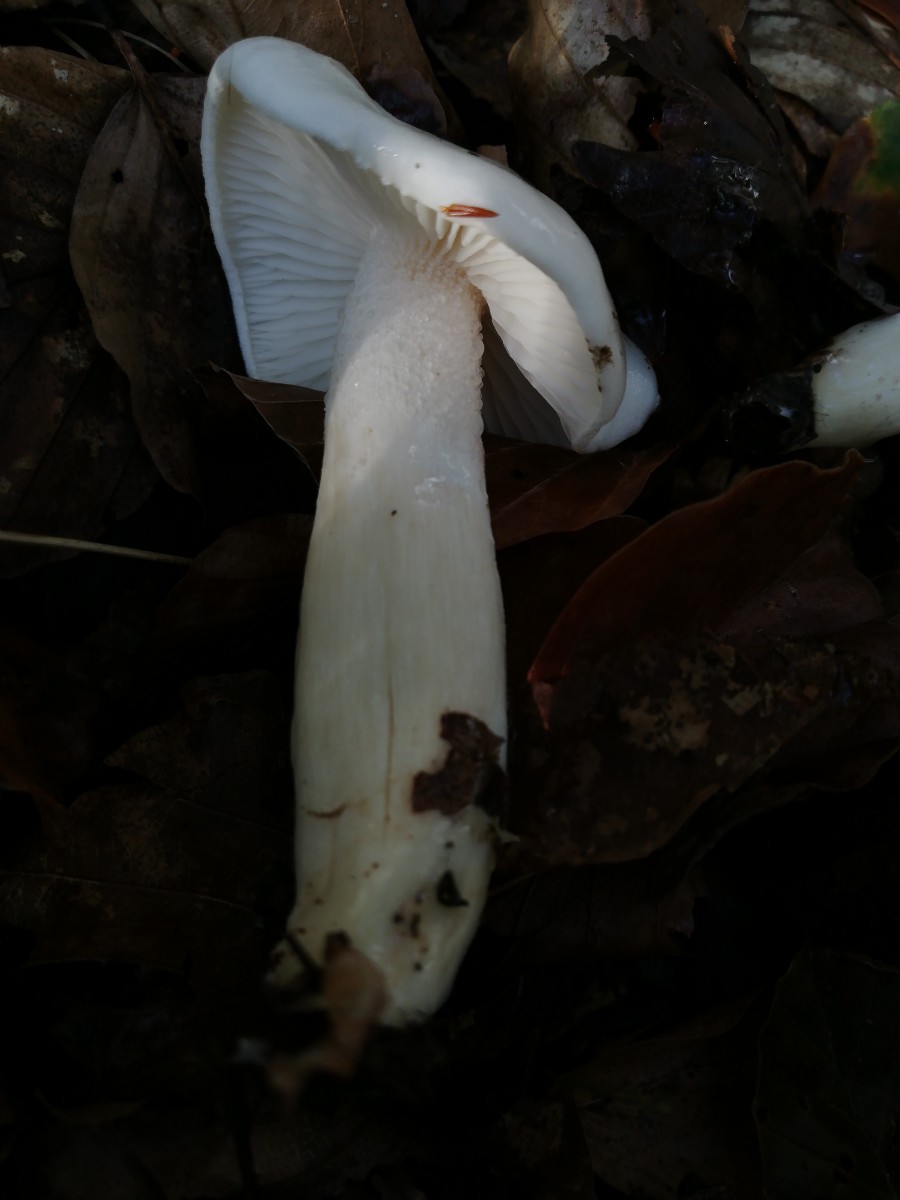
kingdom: Fungi
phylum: Basidiomycota
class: Agaricomycetes
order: Agaricales
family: Hygrophoraceae
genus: Hygrophorus
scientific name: Hygrophorus
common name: sneglehat
